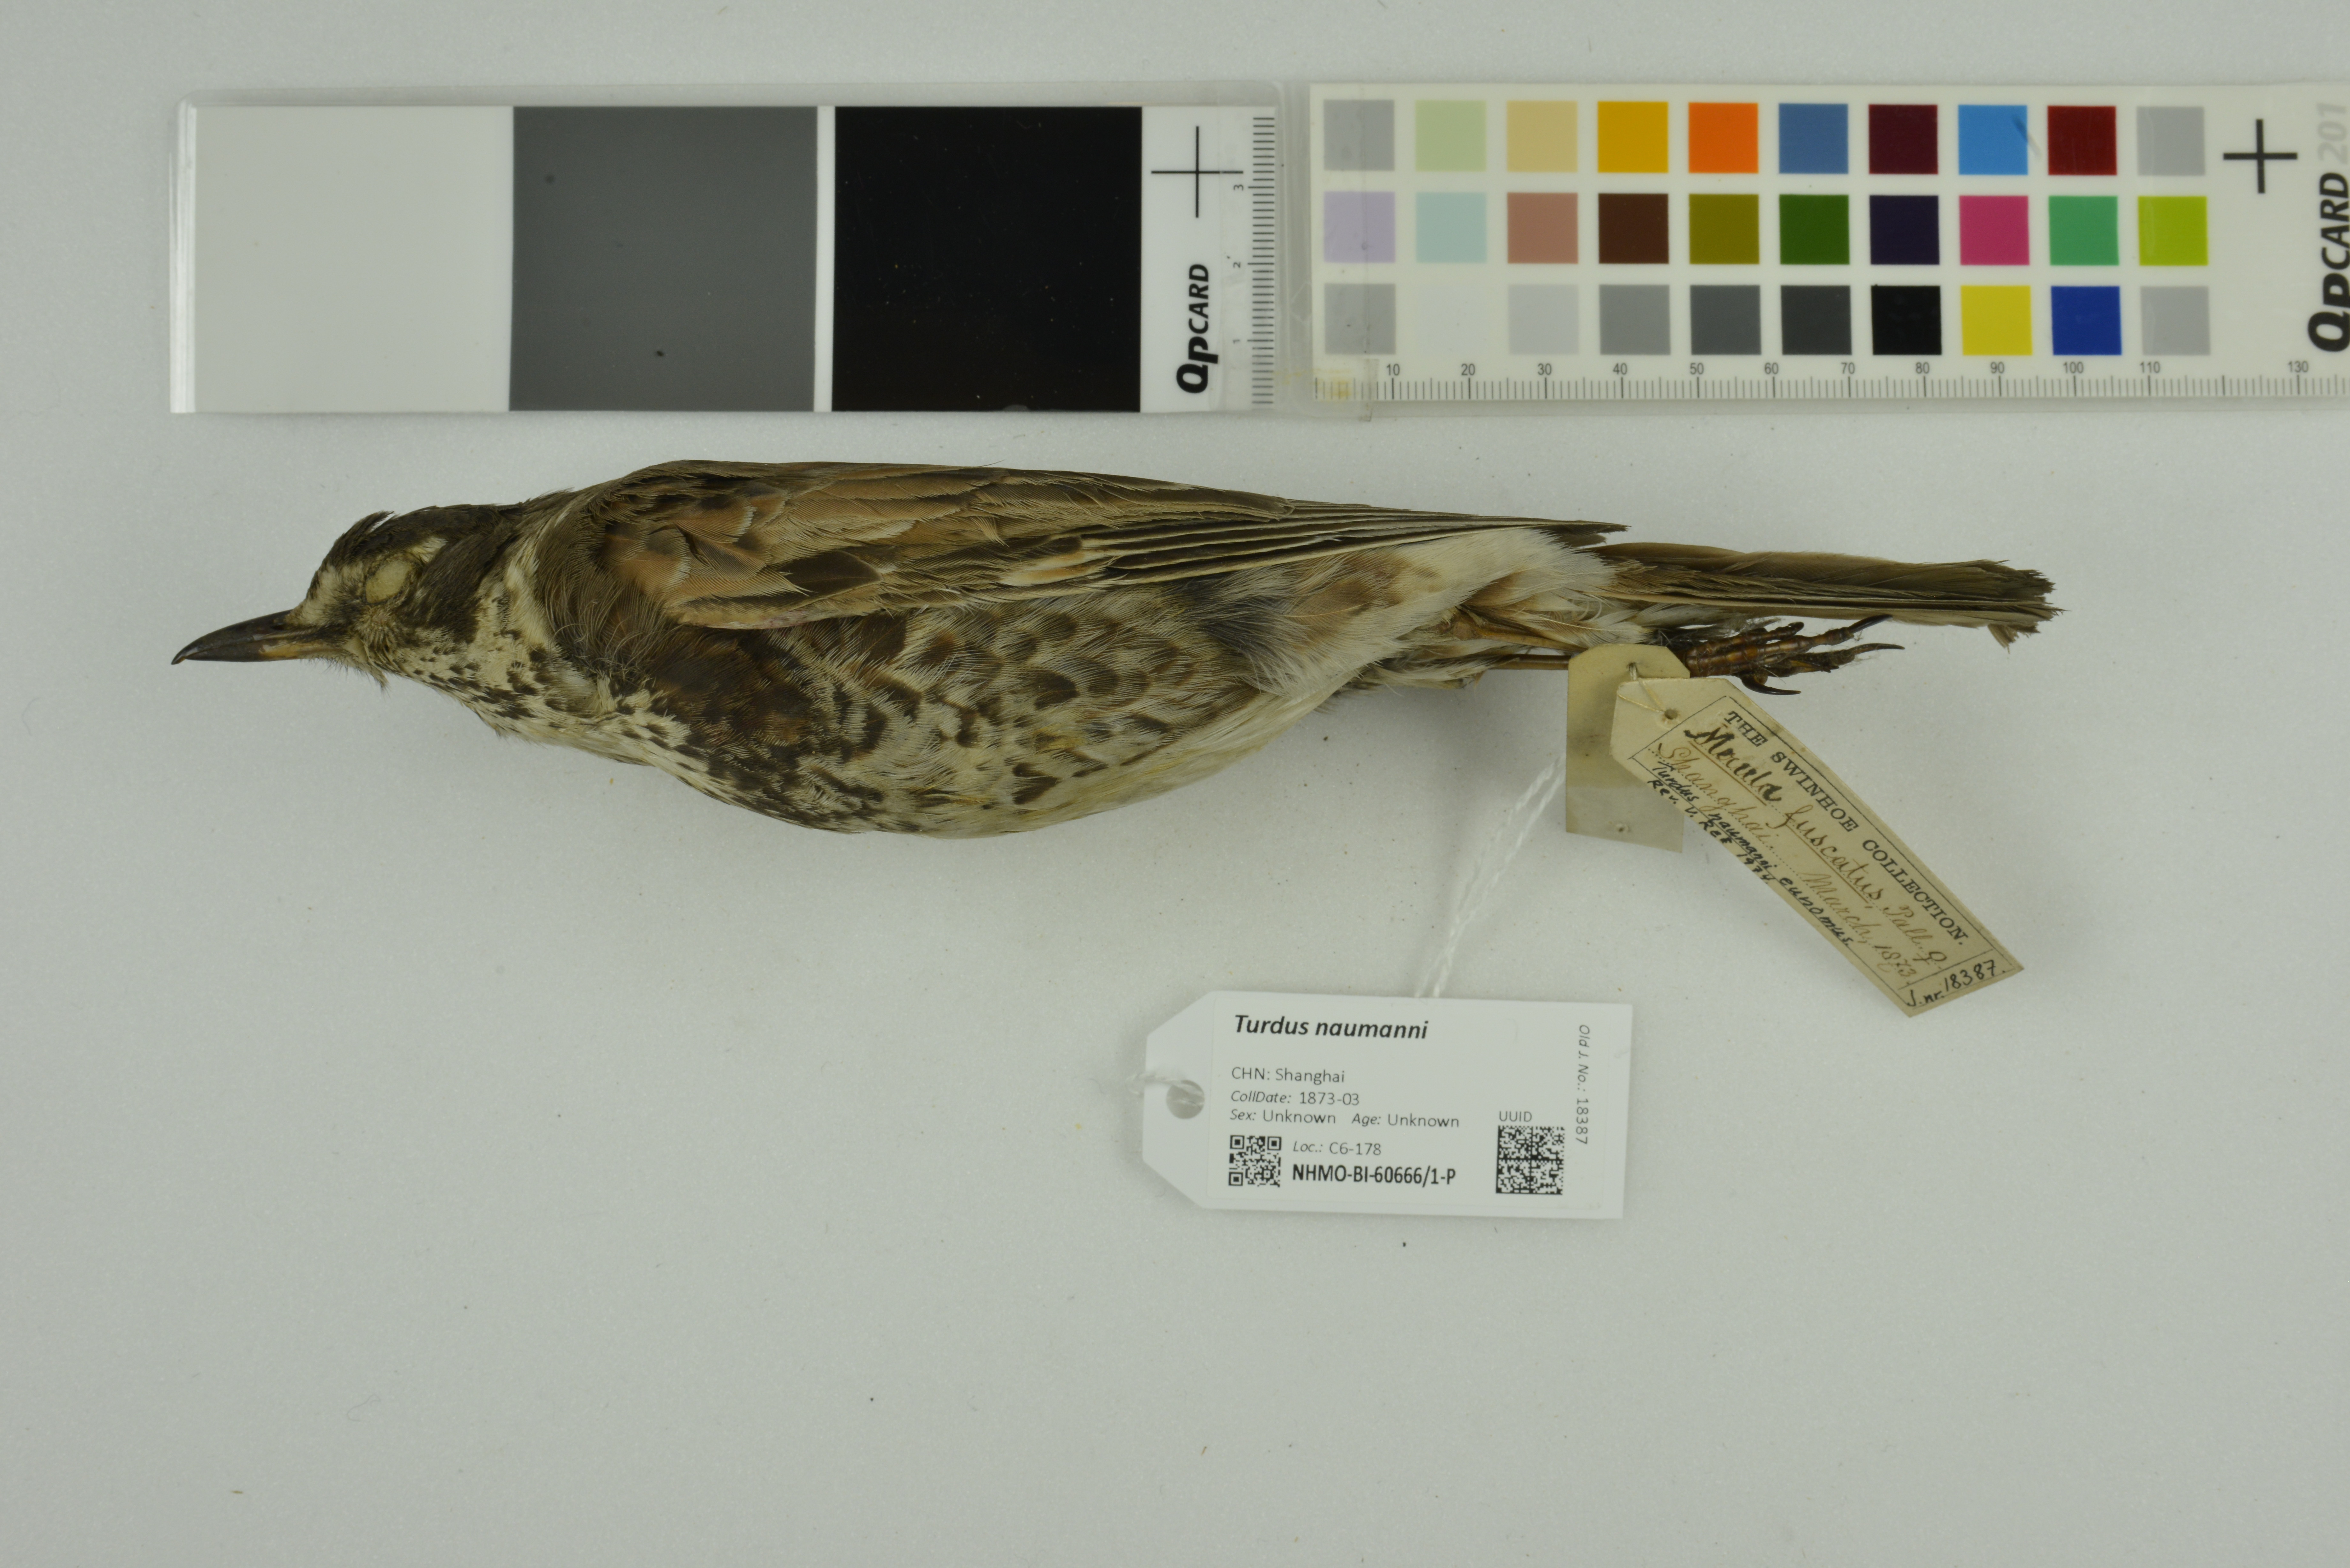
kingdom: Animalia
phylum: Chordata
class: Aves
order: Passeriformes
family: Turdidae
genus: Turdus
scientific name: Turdus naumanni
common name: Naumann's thrush
